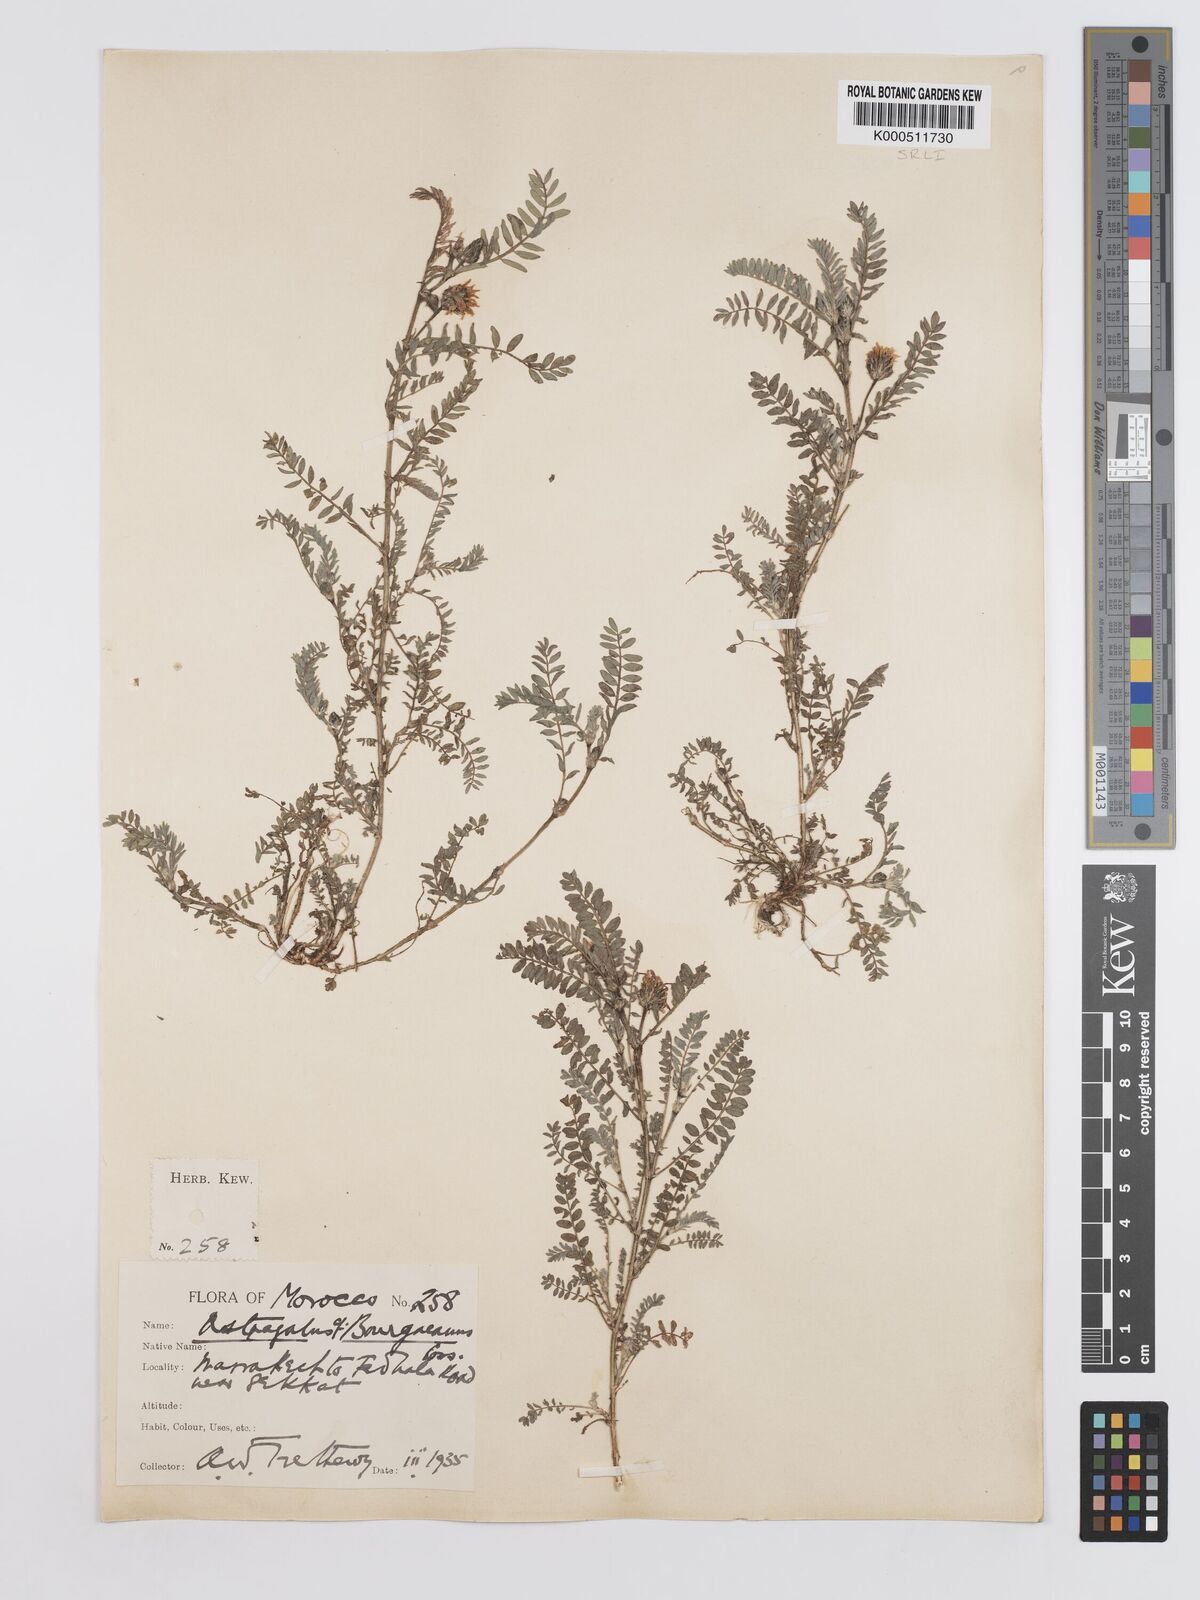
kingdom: Plantae
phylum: Tracheophyta
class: Magnoliopsida
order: Fabales
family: Fabaceae
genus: Astragalus
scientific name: Astragalus bourgaeanus
